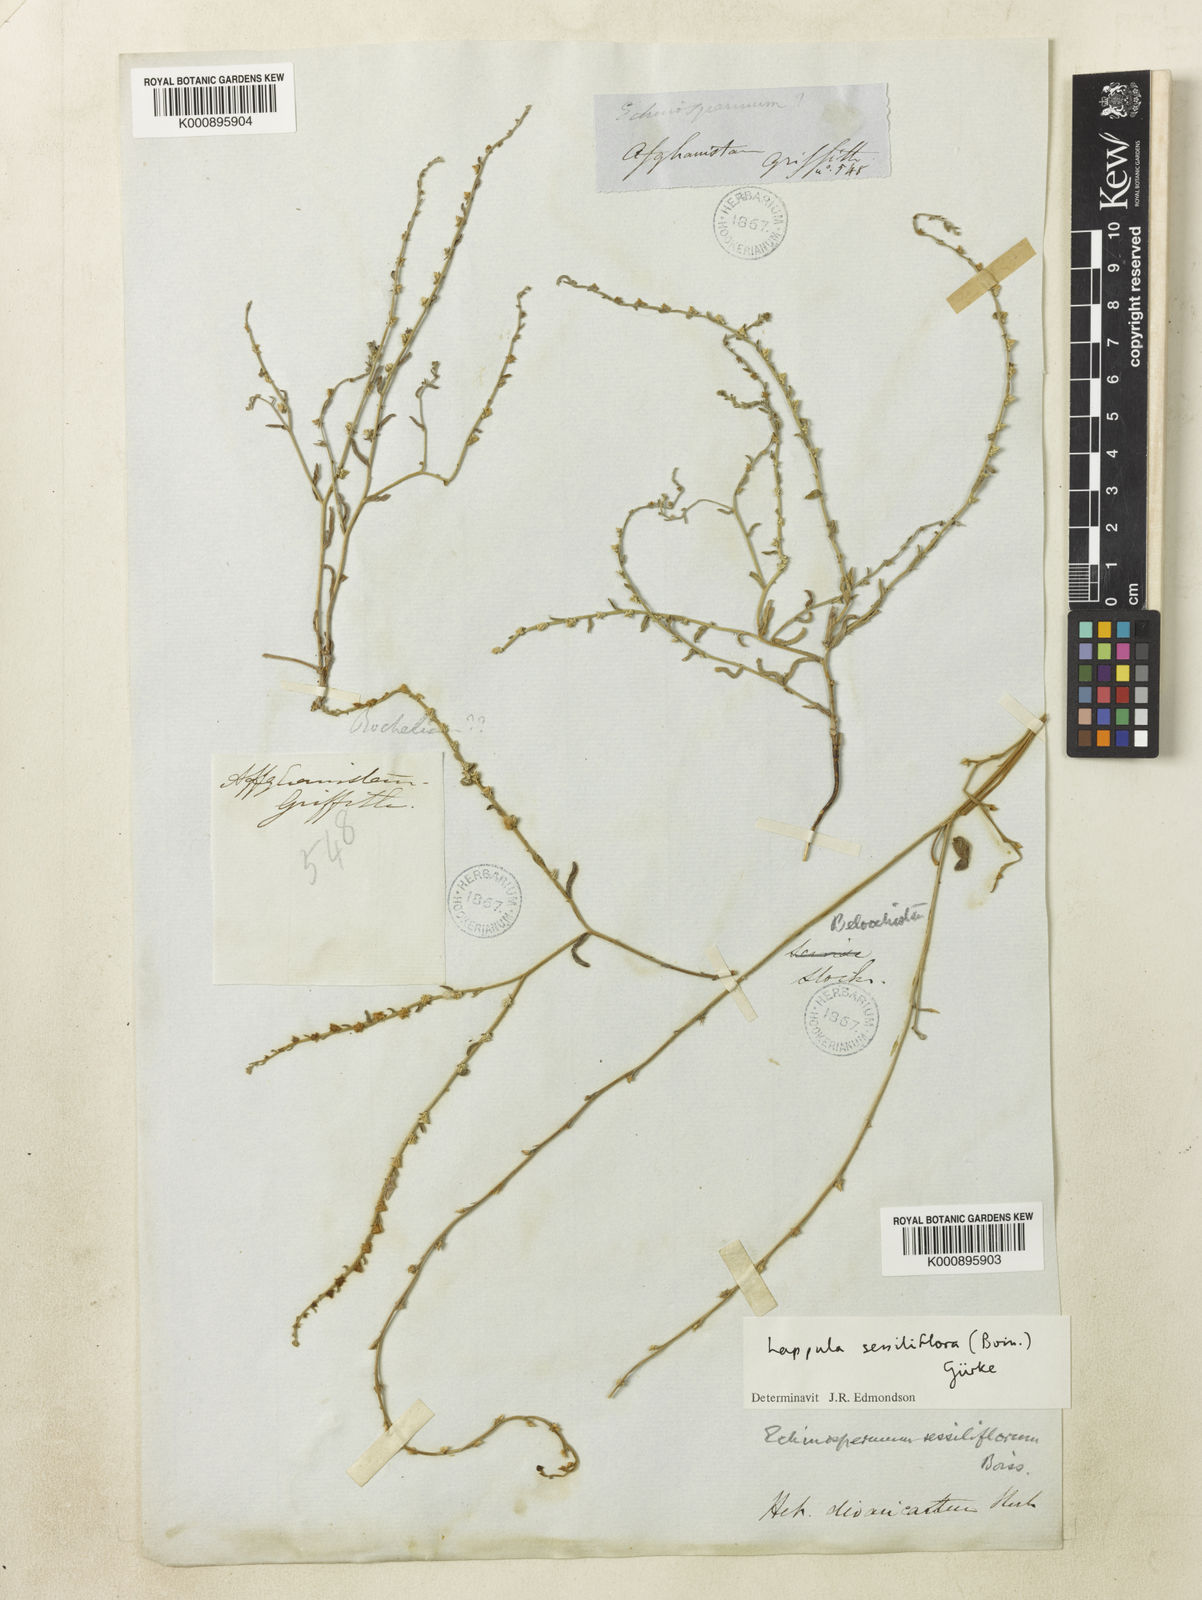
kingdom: Plantae
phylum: Tracheophyta
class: Magnoliopsida
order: Boraginales
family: Boraginaceae
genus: Lappula
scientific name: Lappula
